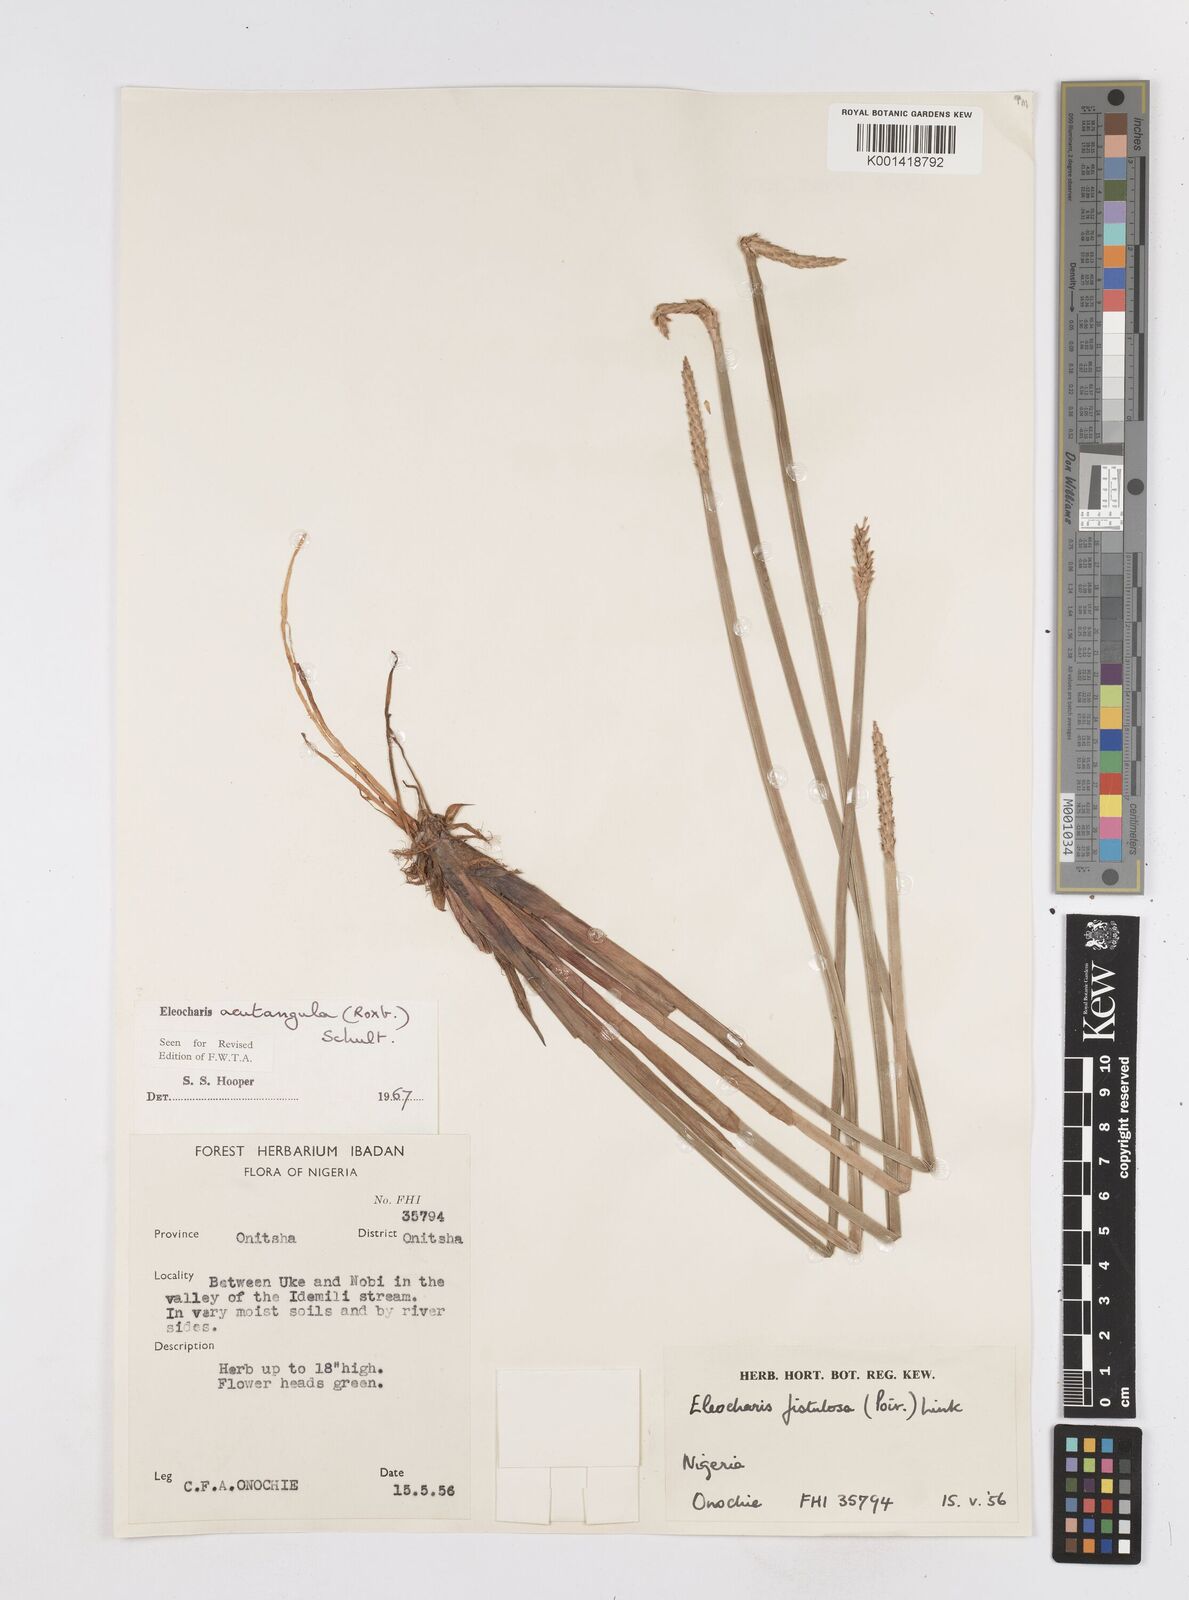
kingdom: Plantae
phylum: Tracheophyta
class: Liliopsida
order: Poales
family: Cyperaceae
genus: Eleocharis
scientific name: Eleocharis acutangula
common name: Acute spikerush
